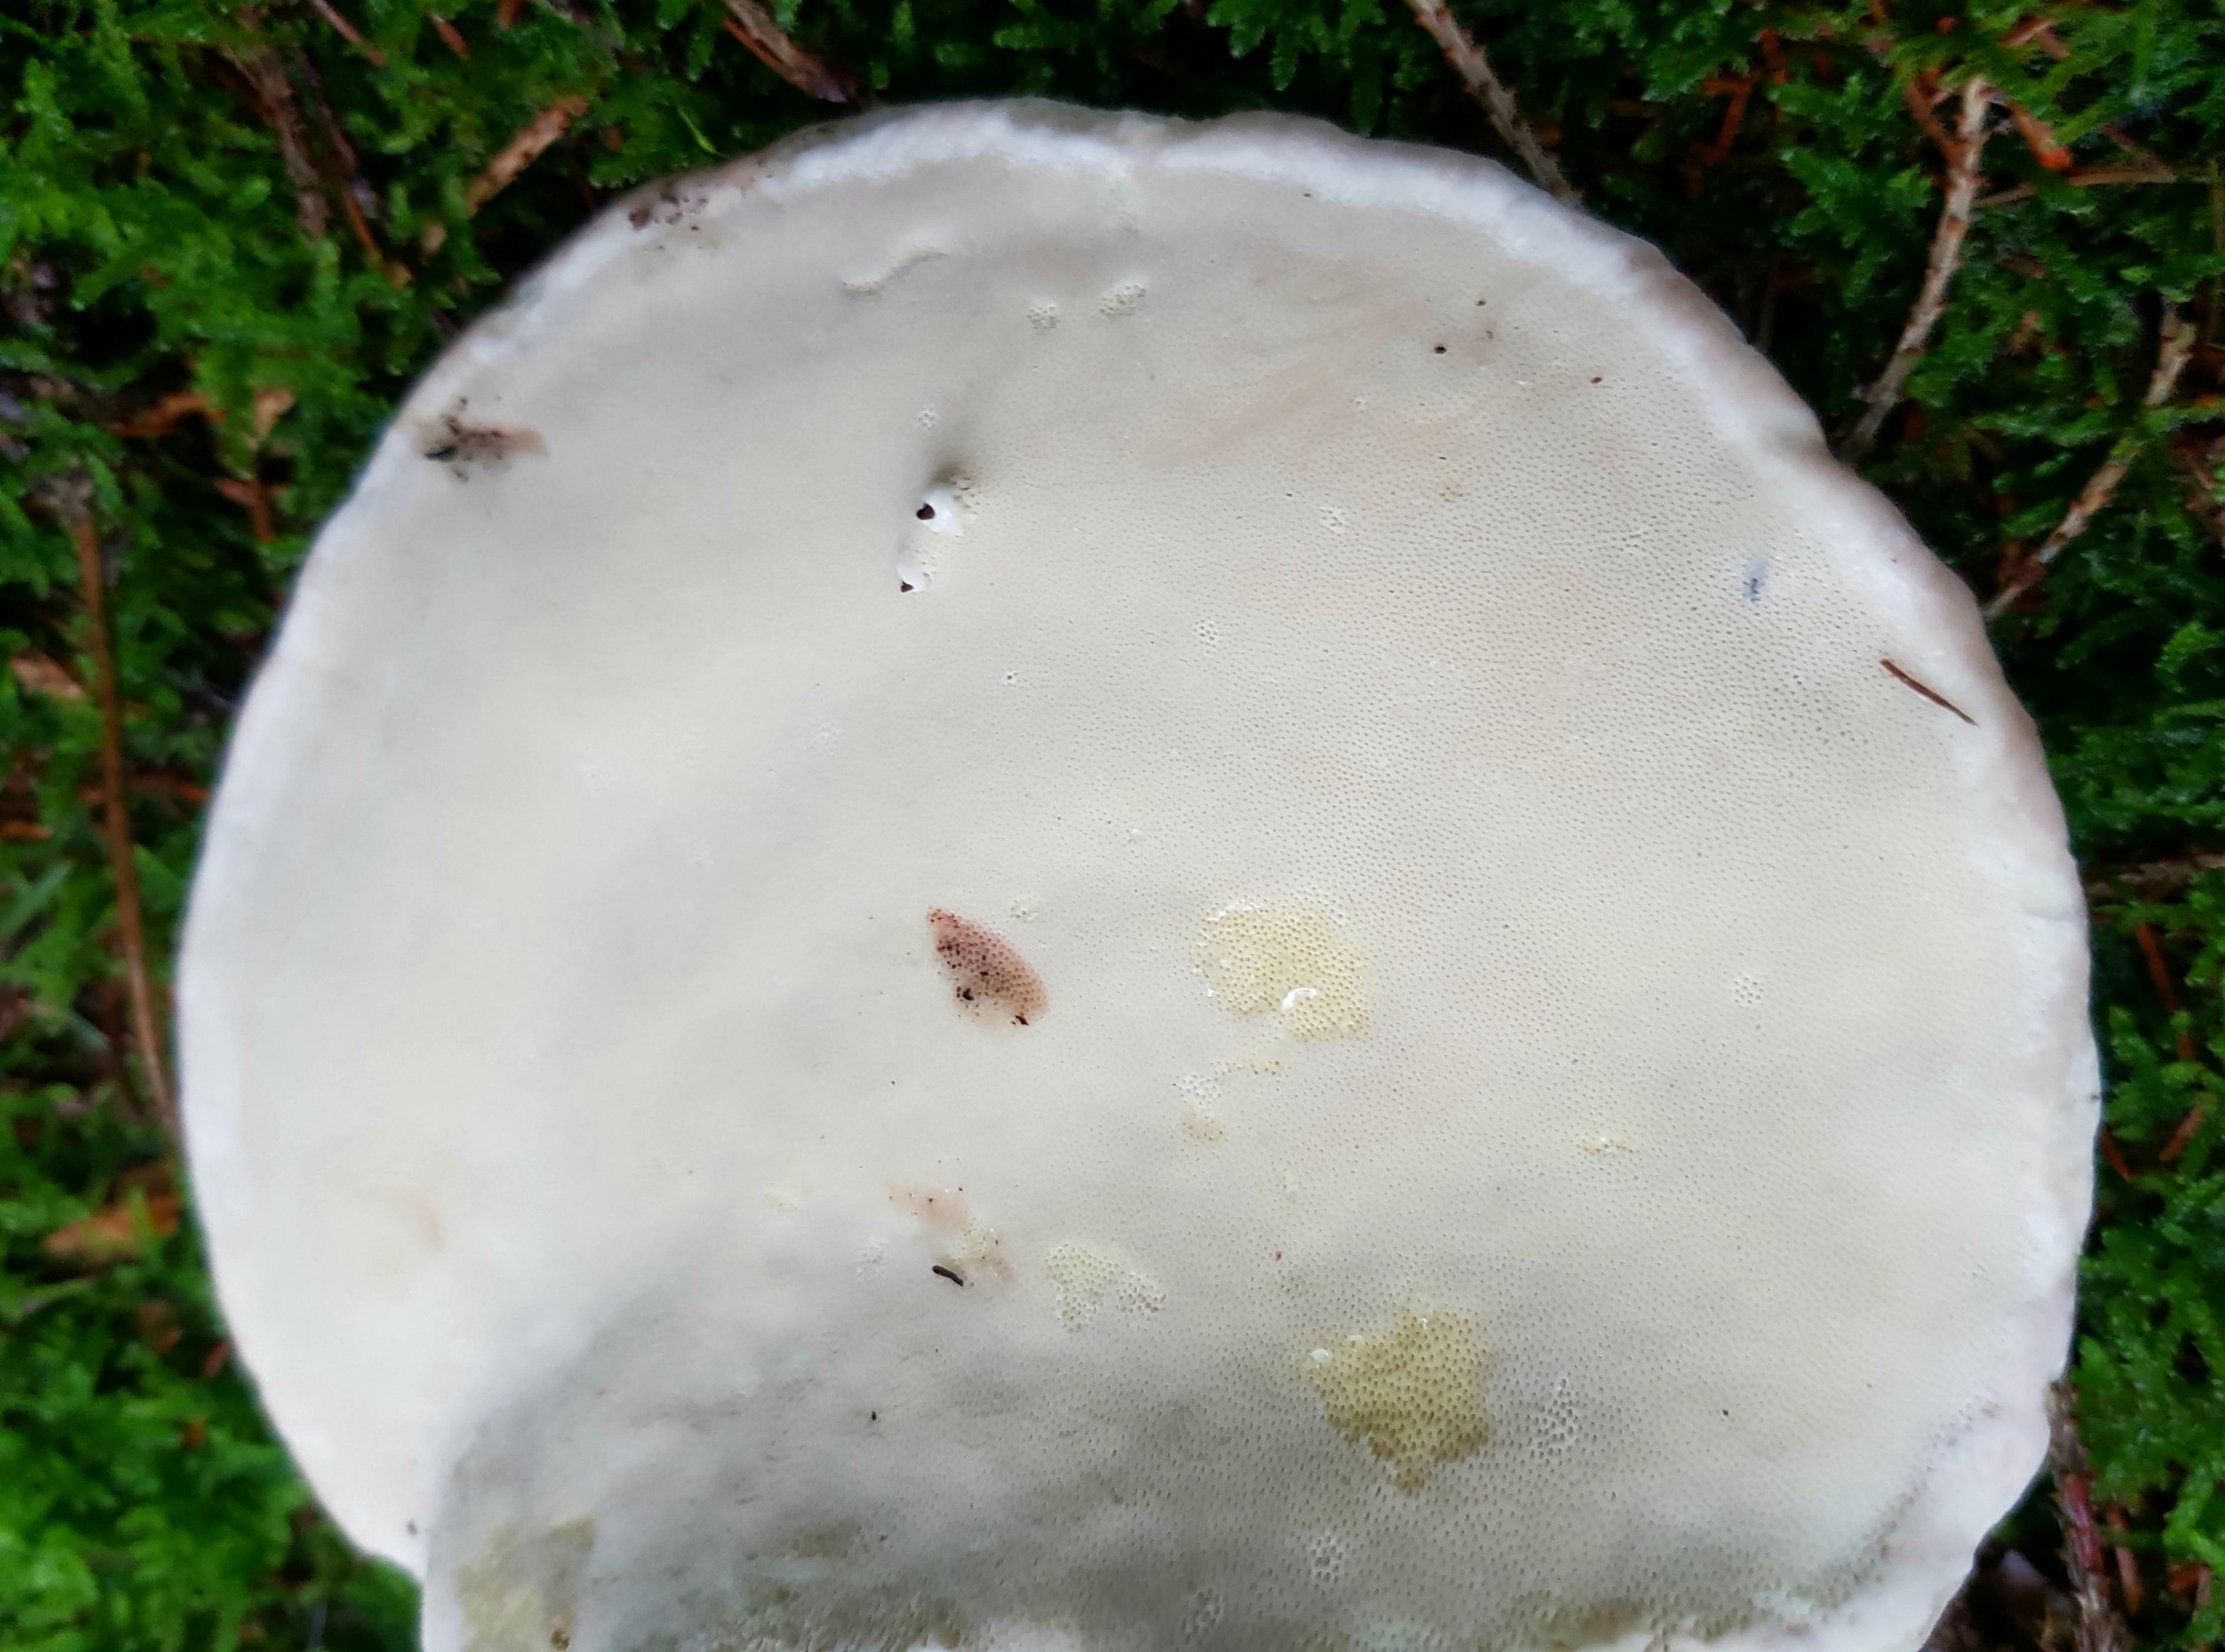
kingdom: Fungi
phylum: Basidiomycota
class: Agaricomycetes
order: Polyporales
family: Fomitopsidaceae
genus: Fomitopsis
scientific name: Fomitopsis pinicola
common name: randbæltet hovporesvamp
